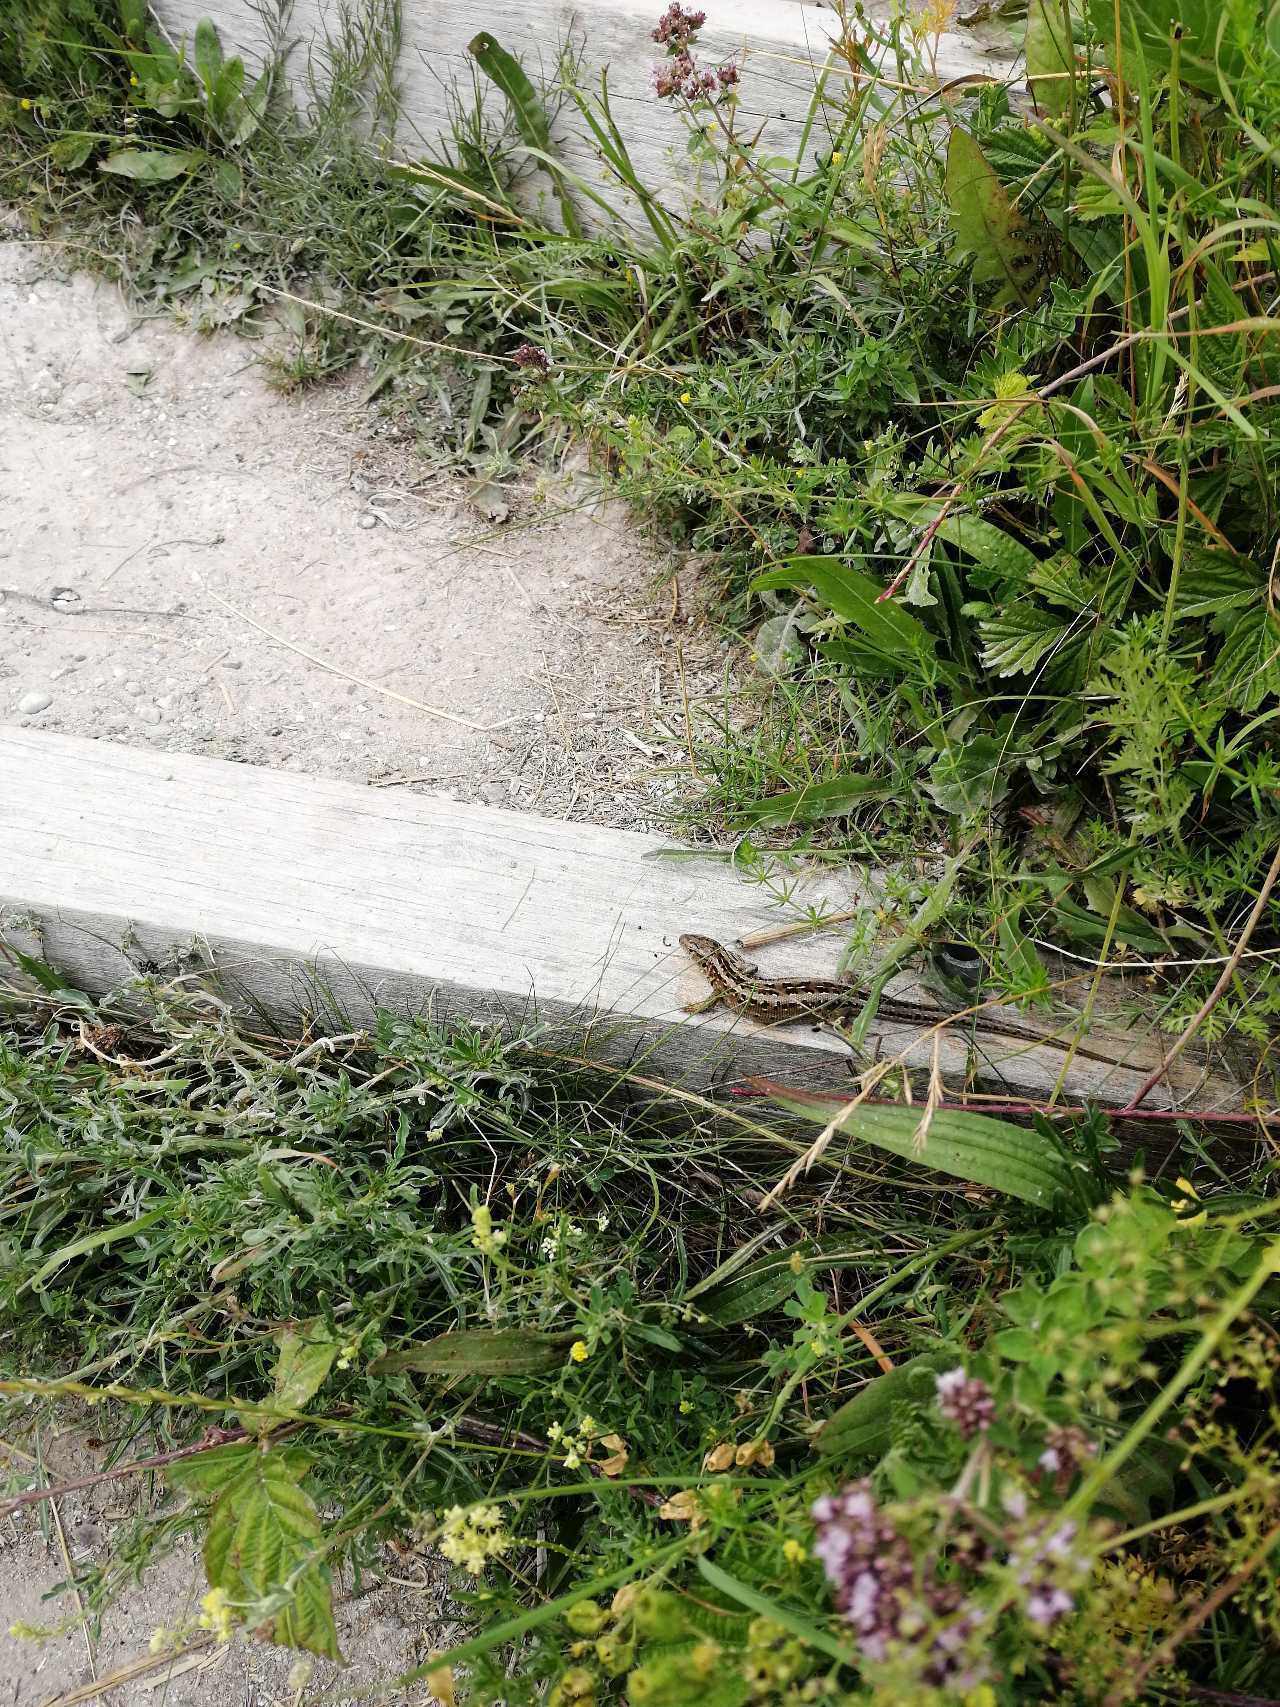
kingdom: Animalia
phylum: Chordata
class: Squamata
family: Lacertidae
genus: Lacerta
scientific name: Lacerta agilis
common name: Markfirben
